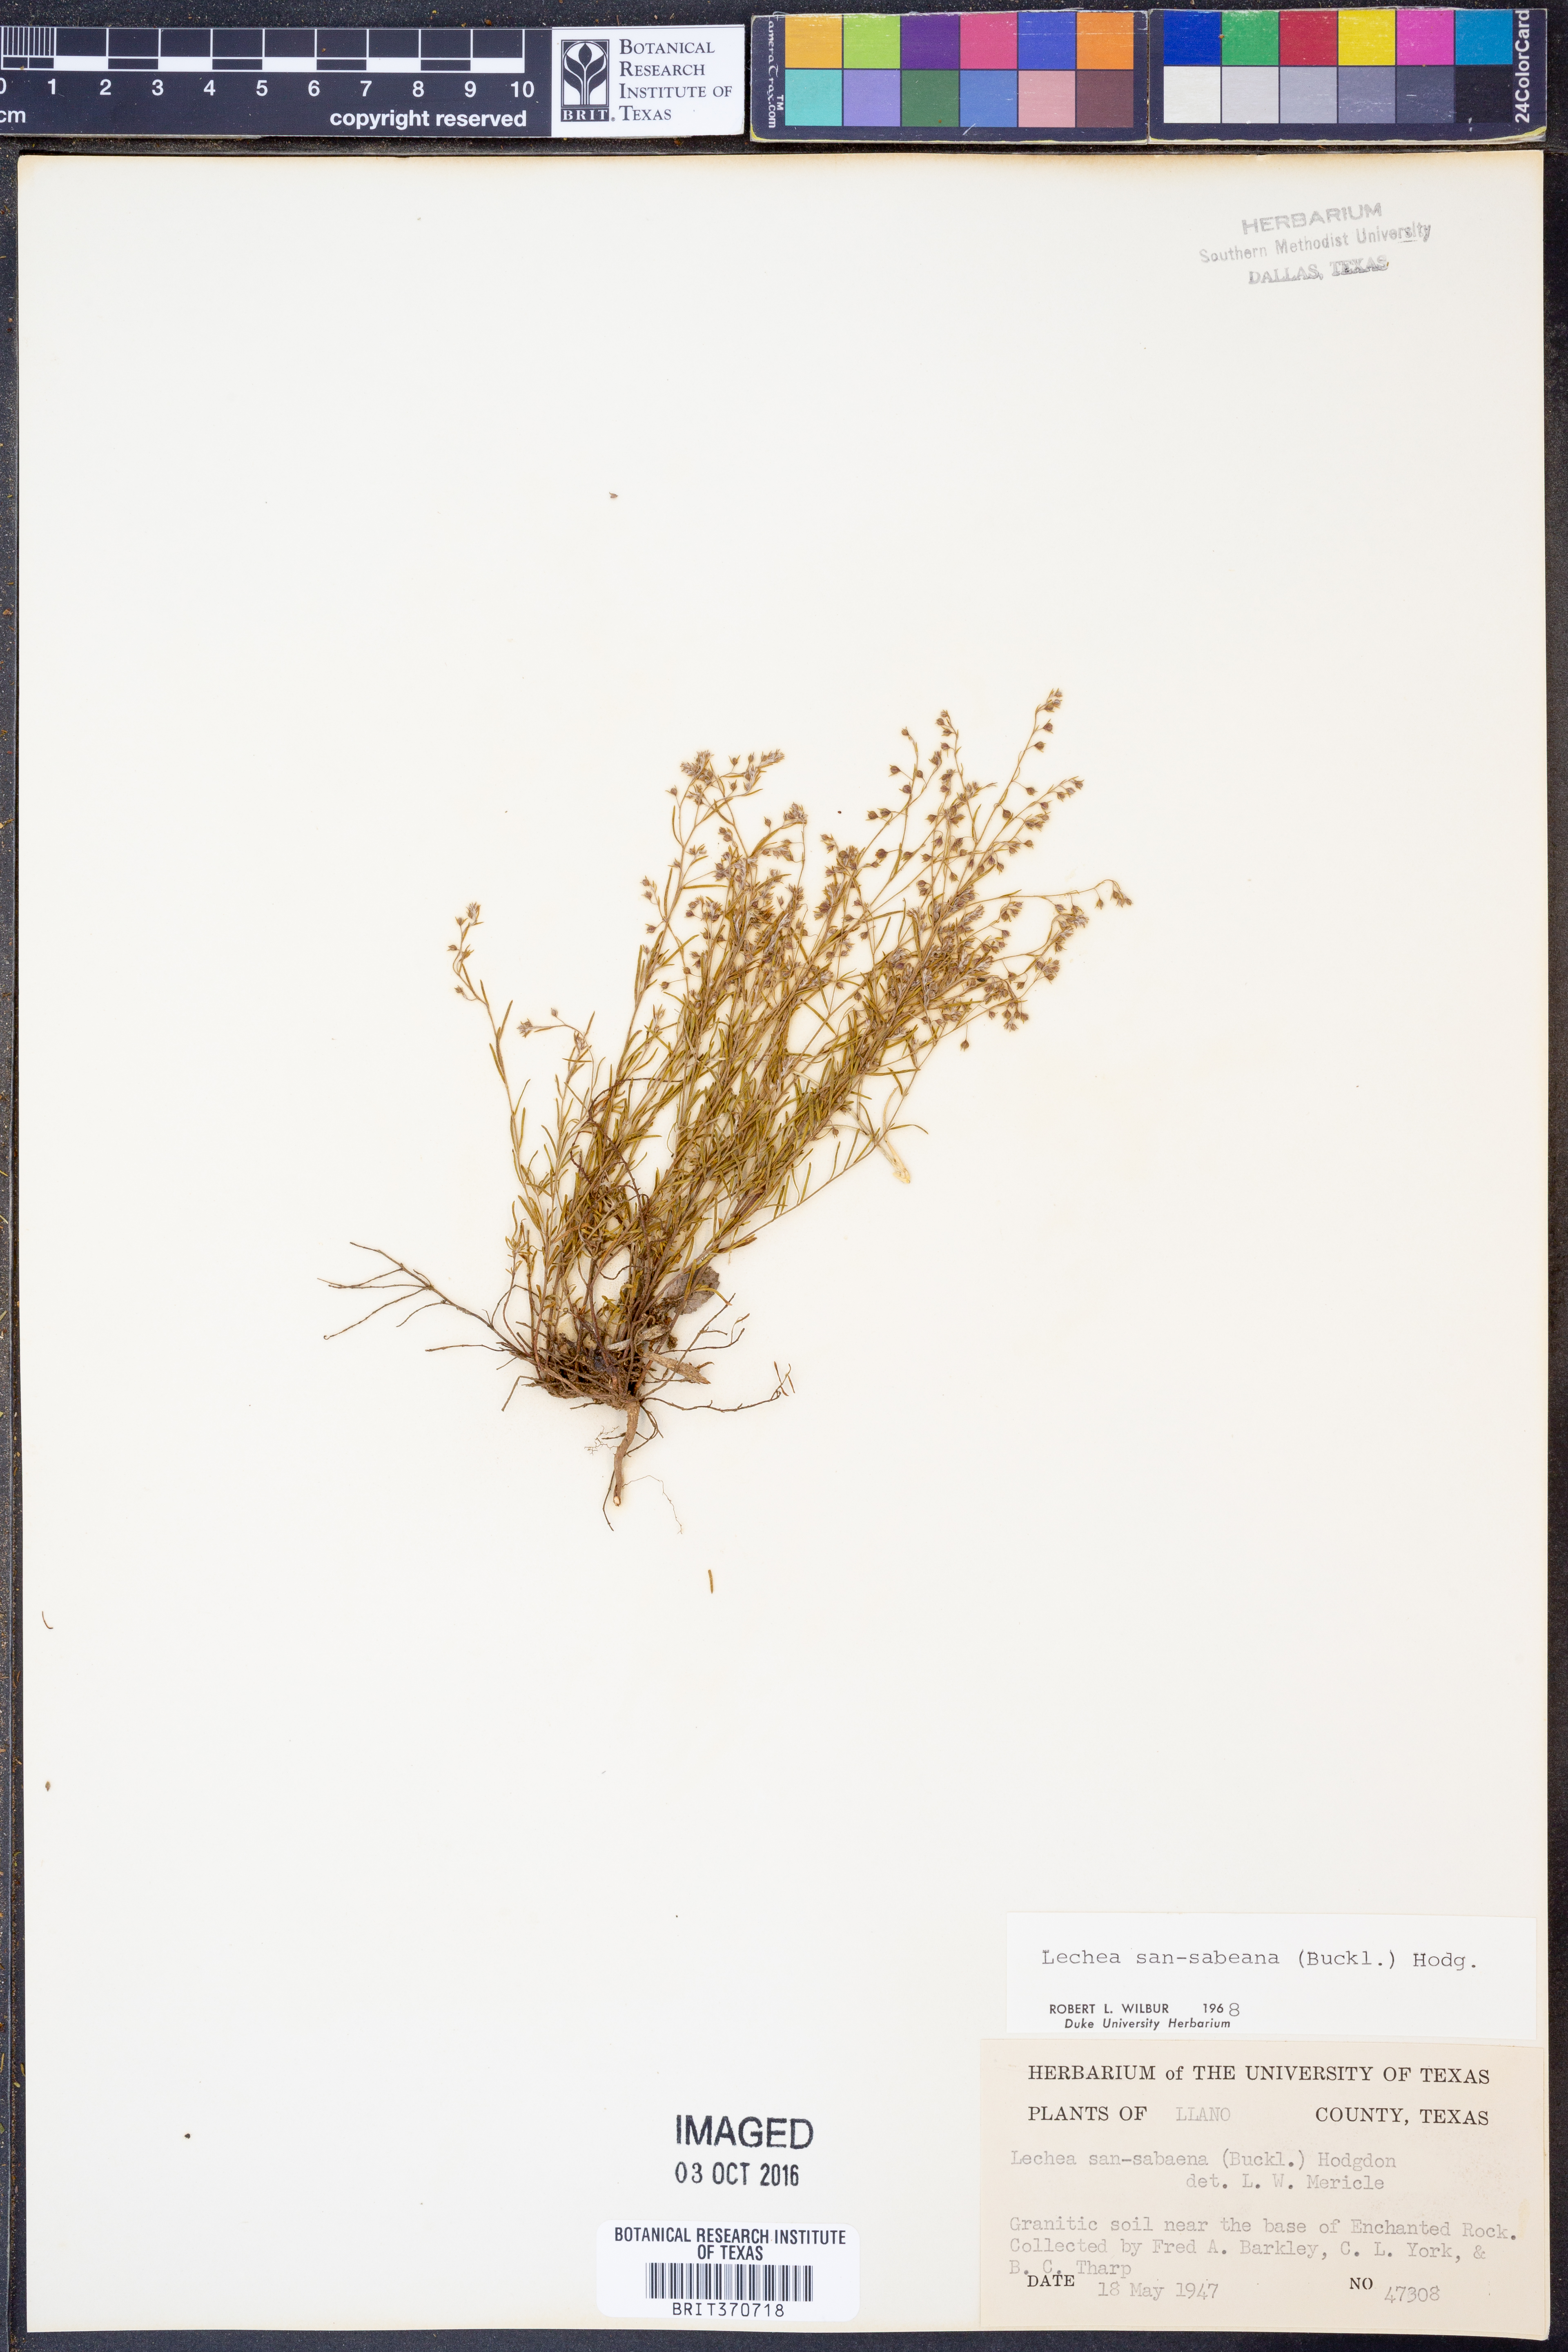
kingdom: Plantae
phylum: Tracheophyta
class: Magnoliopsida
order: Malvales
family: Cistaceae
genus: Lechea
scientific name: Lechea san-sabeana
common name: San saba pinweed
